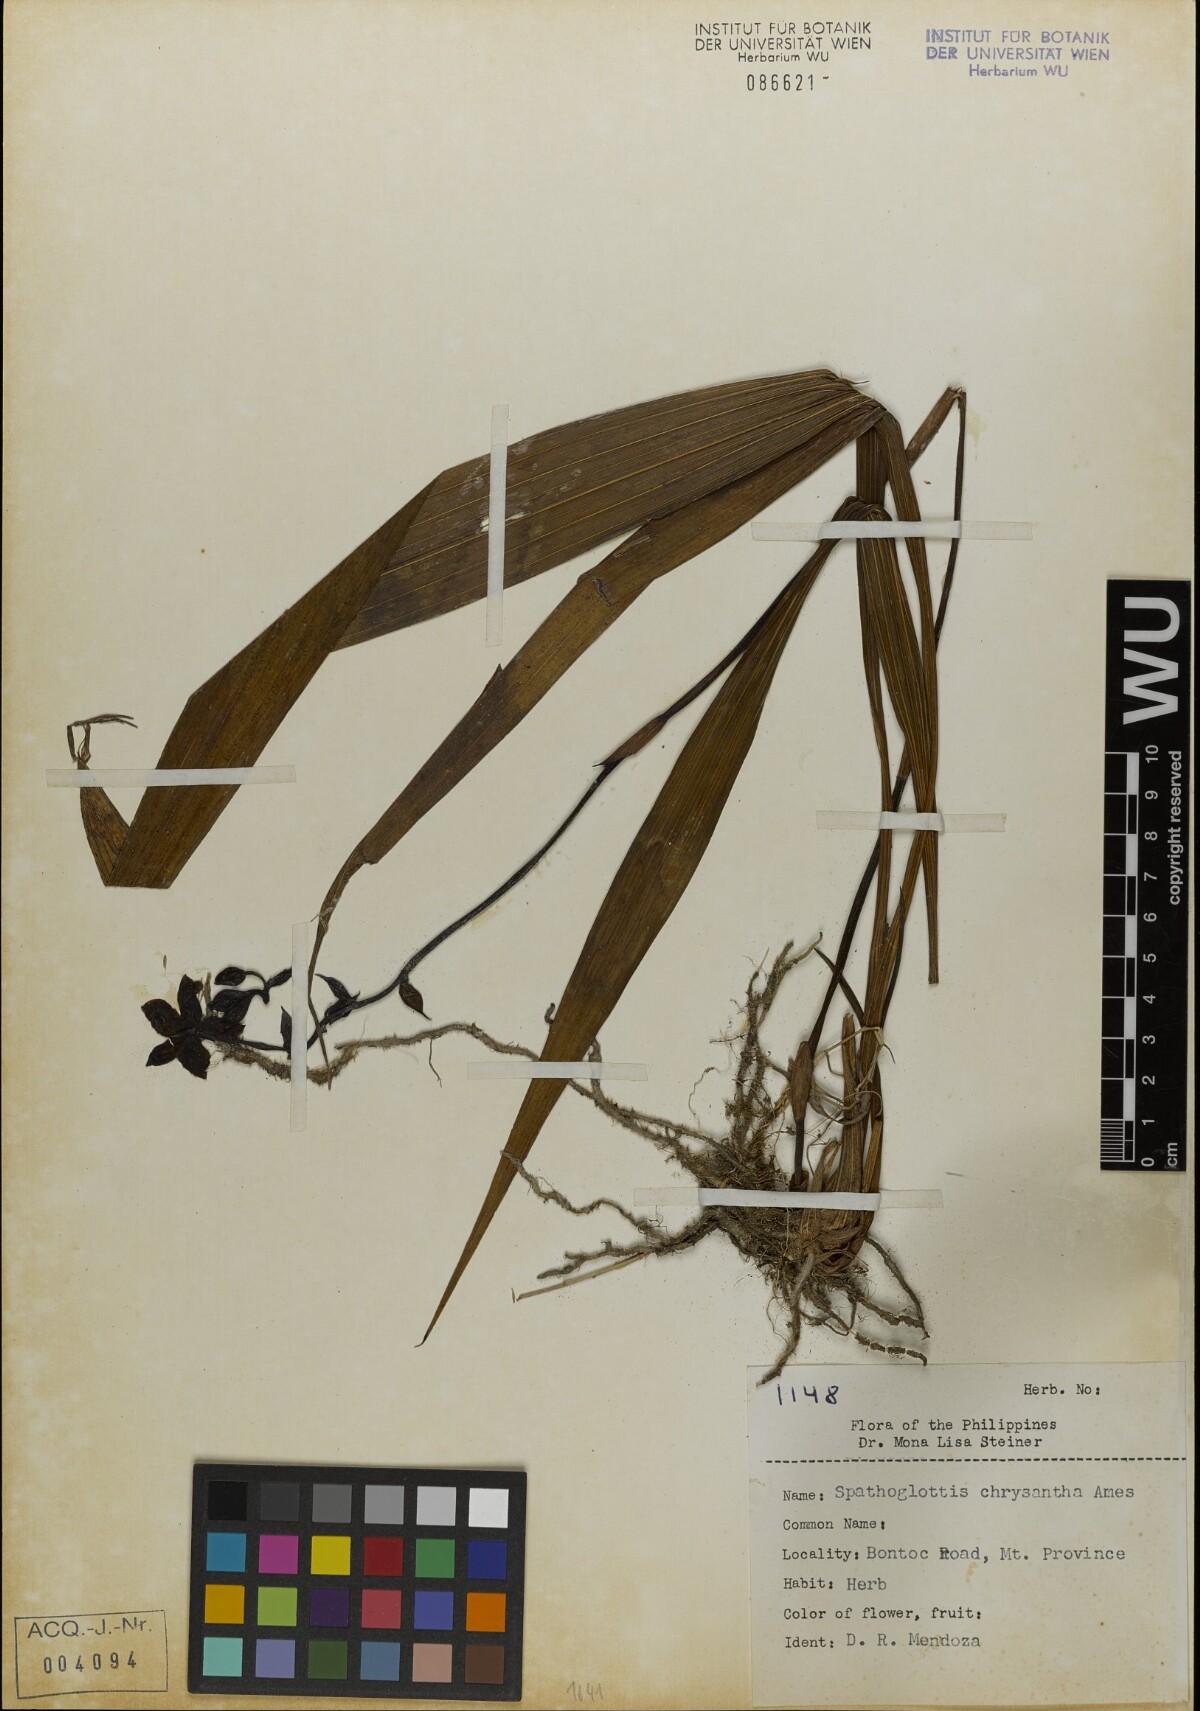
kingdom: Plantae
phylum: Tracheophyta
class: Liliopsida
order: Asparagales
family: Orchidaceae
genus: Spathoglottis
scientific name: Spathoglottis chrysantha
